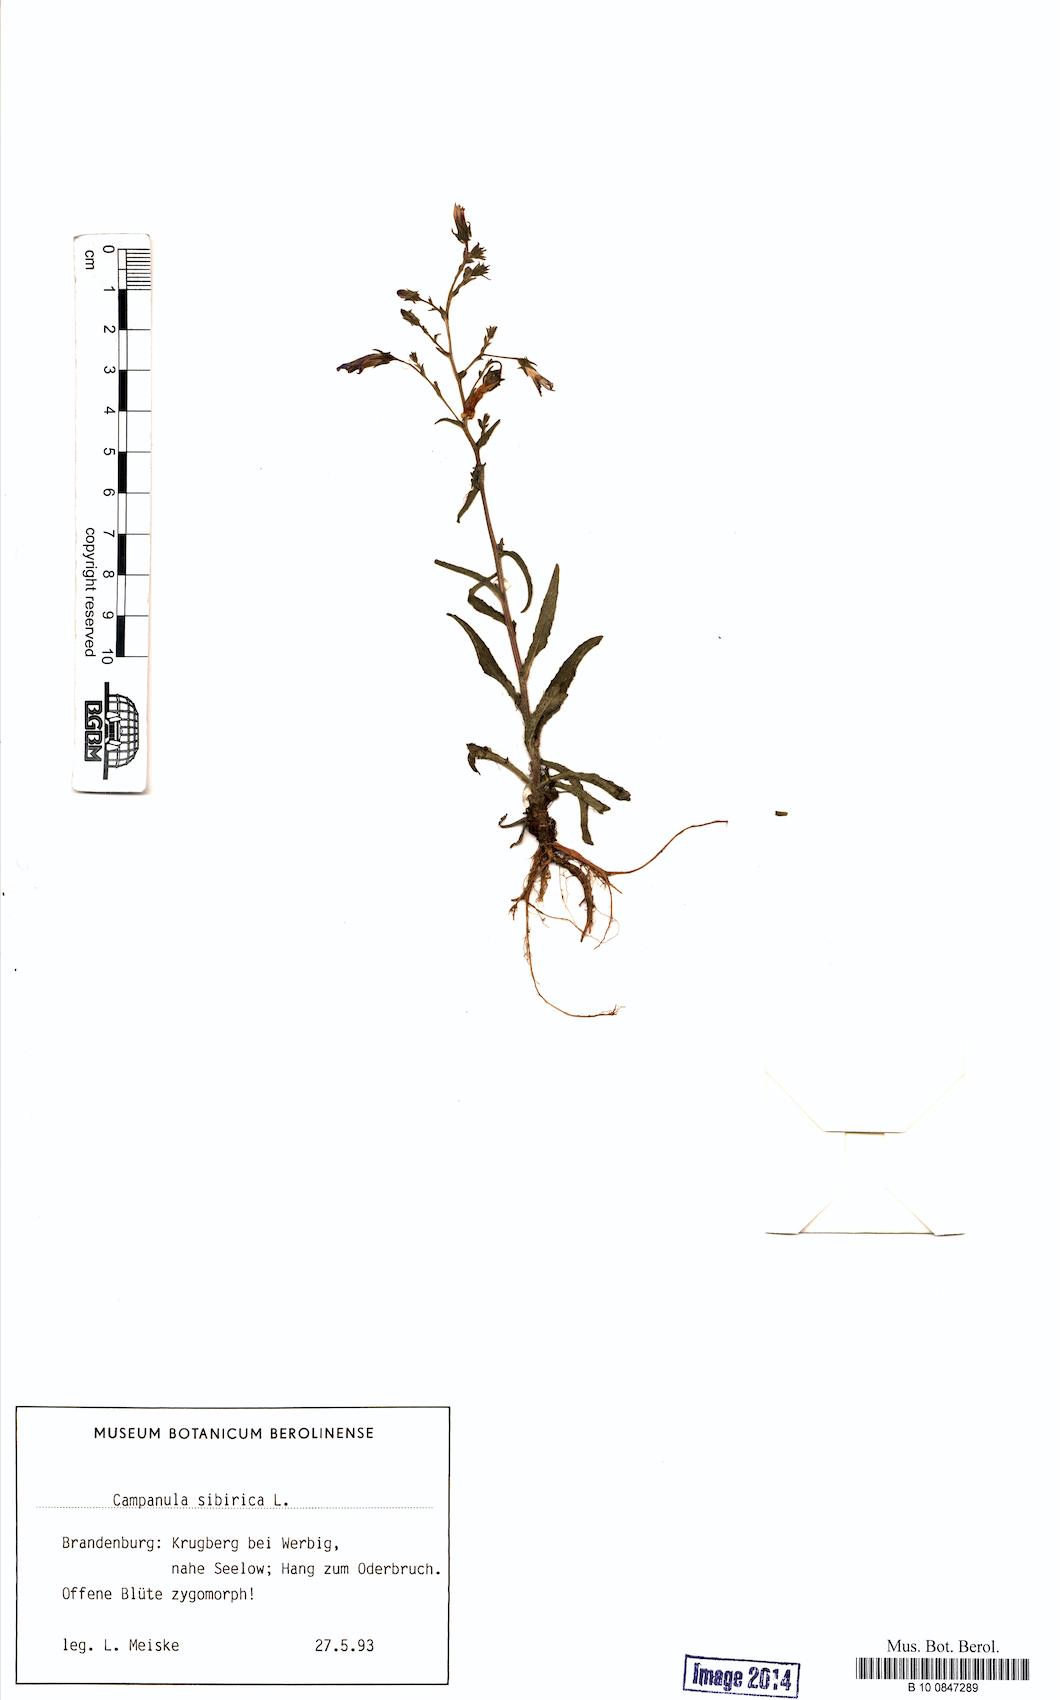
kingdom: Plantae
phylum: Tracheophyta
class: Magnoliopsida
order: Asterales
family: Campanulaceae
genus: Campanula
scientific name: Campanula sibirica
